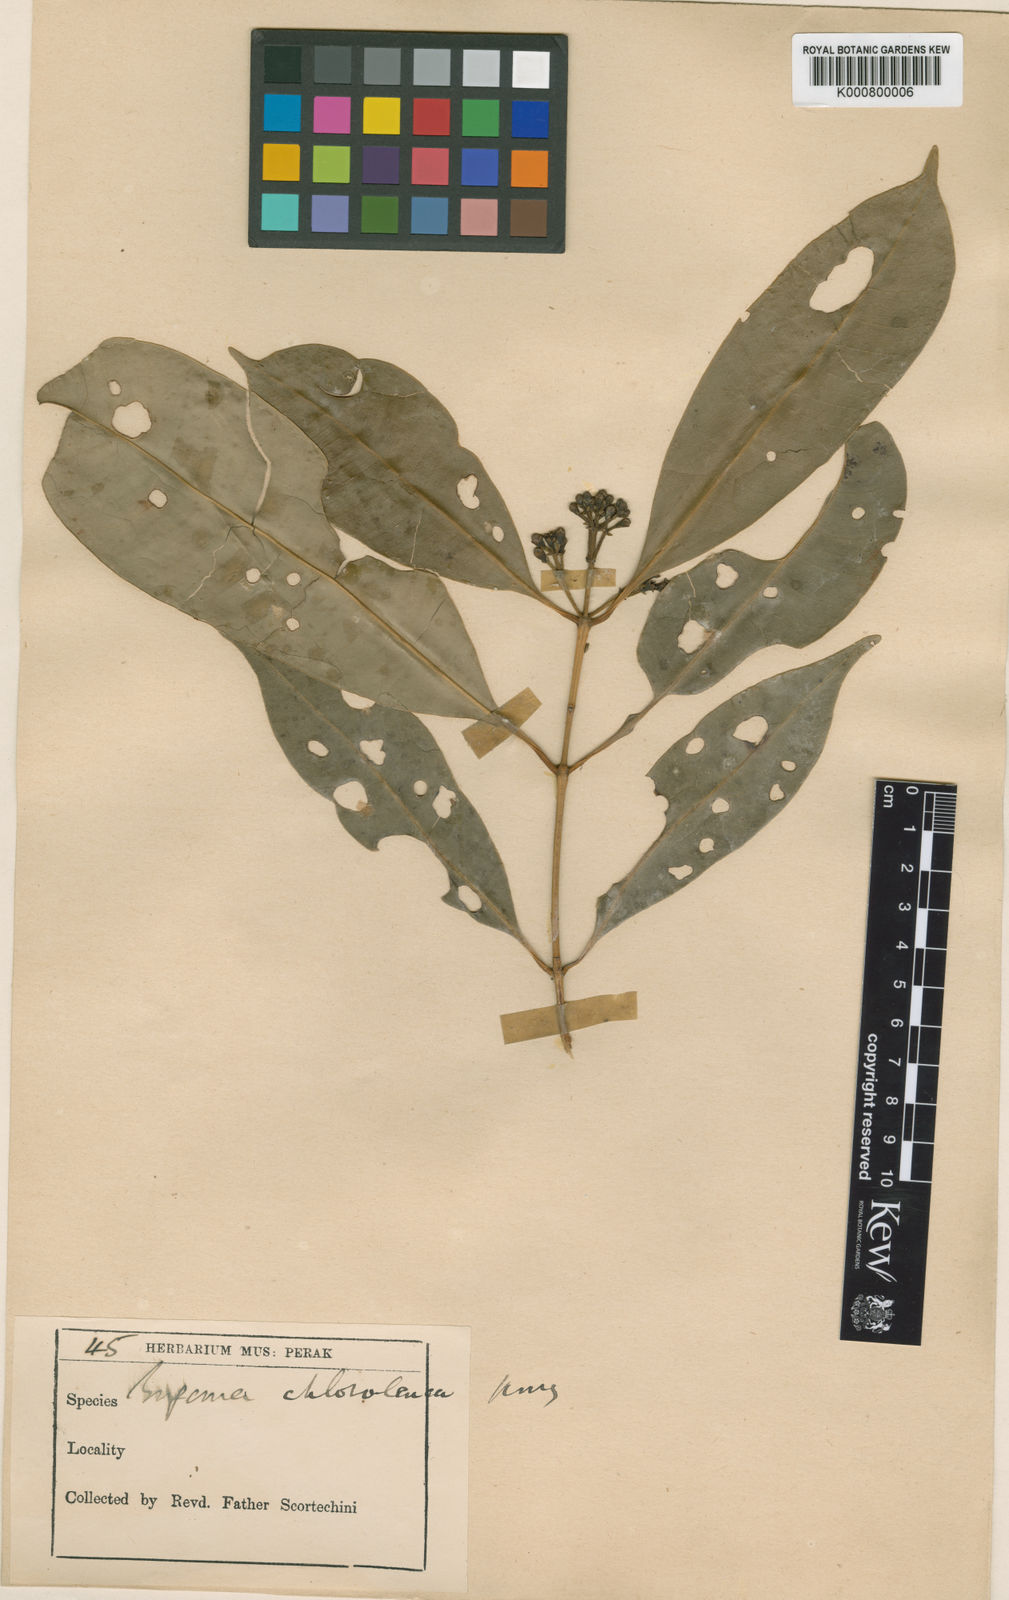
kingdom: Plantae
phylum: Tracheophyta
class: Magnoliopsida
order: Myrtales
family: Myrtaceae
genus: Syzygium
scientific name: Syzygium chloroleucum
